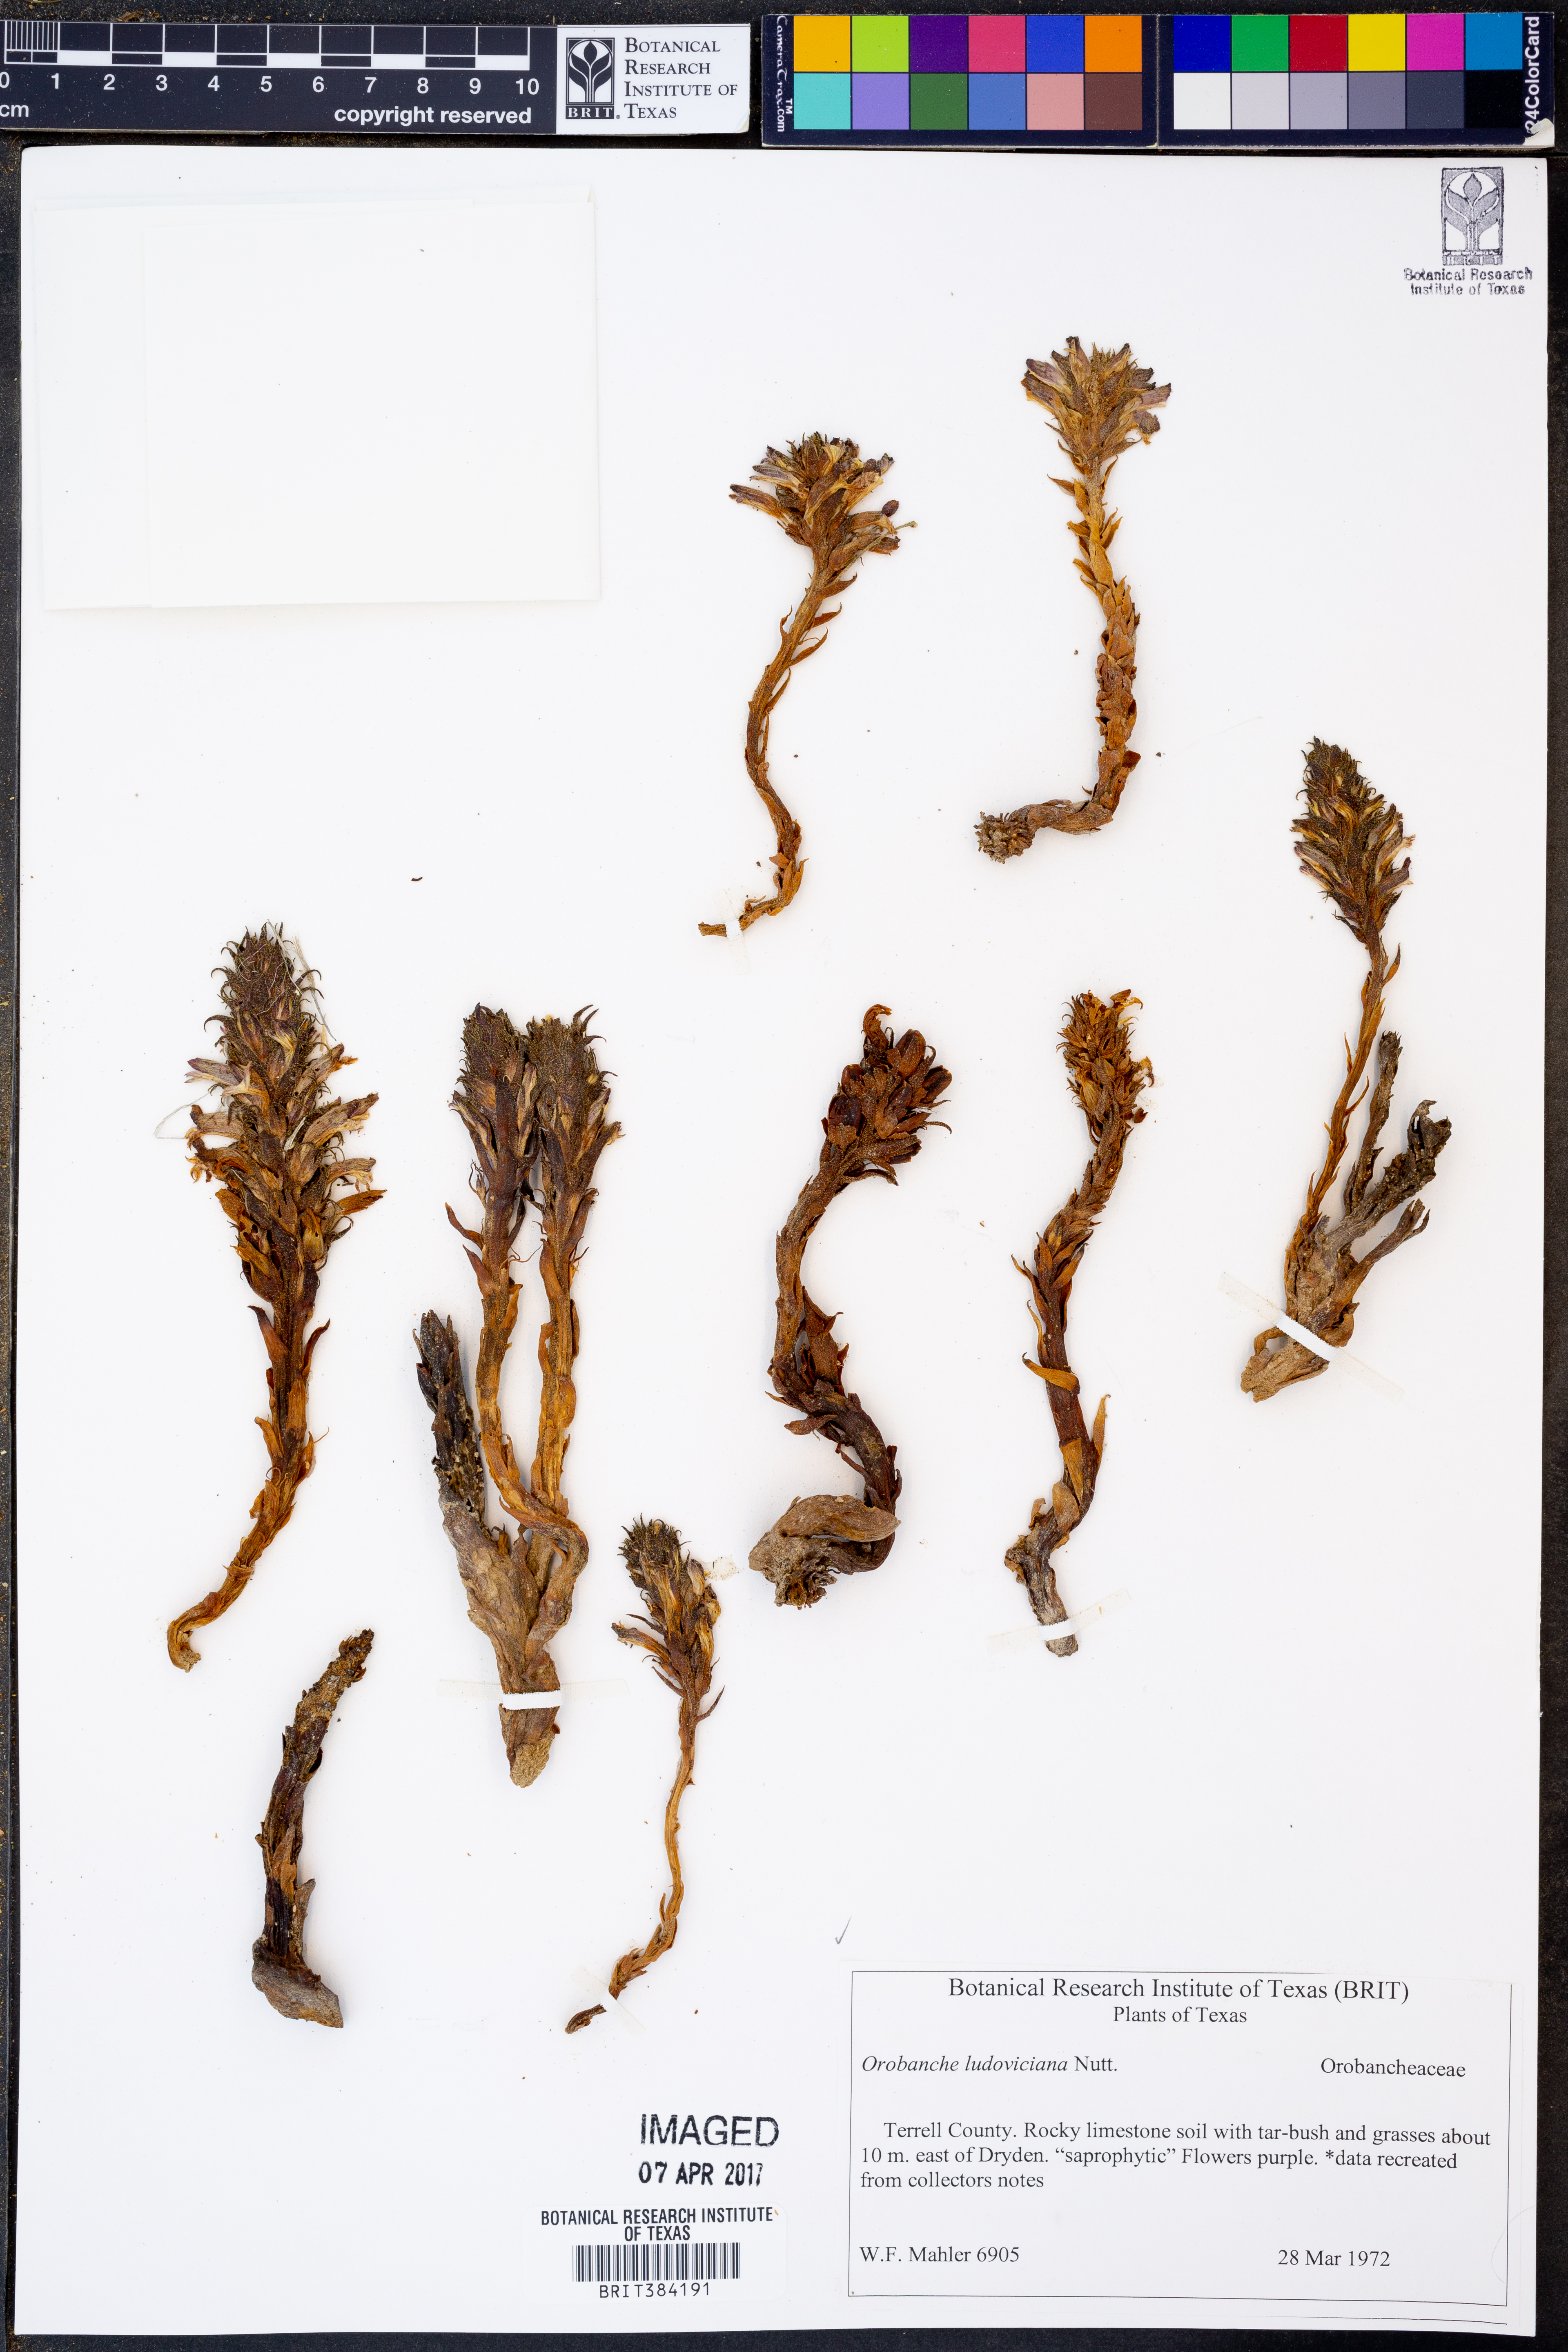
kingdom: Plantae
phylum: Tracheophyta
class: Magnoliopsida
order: Lamiales
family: Orobanchaceae
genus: Aphyllon
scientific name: Aphyllon ludovicianum
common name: Louisiana broomrape
